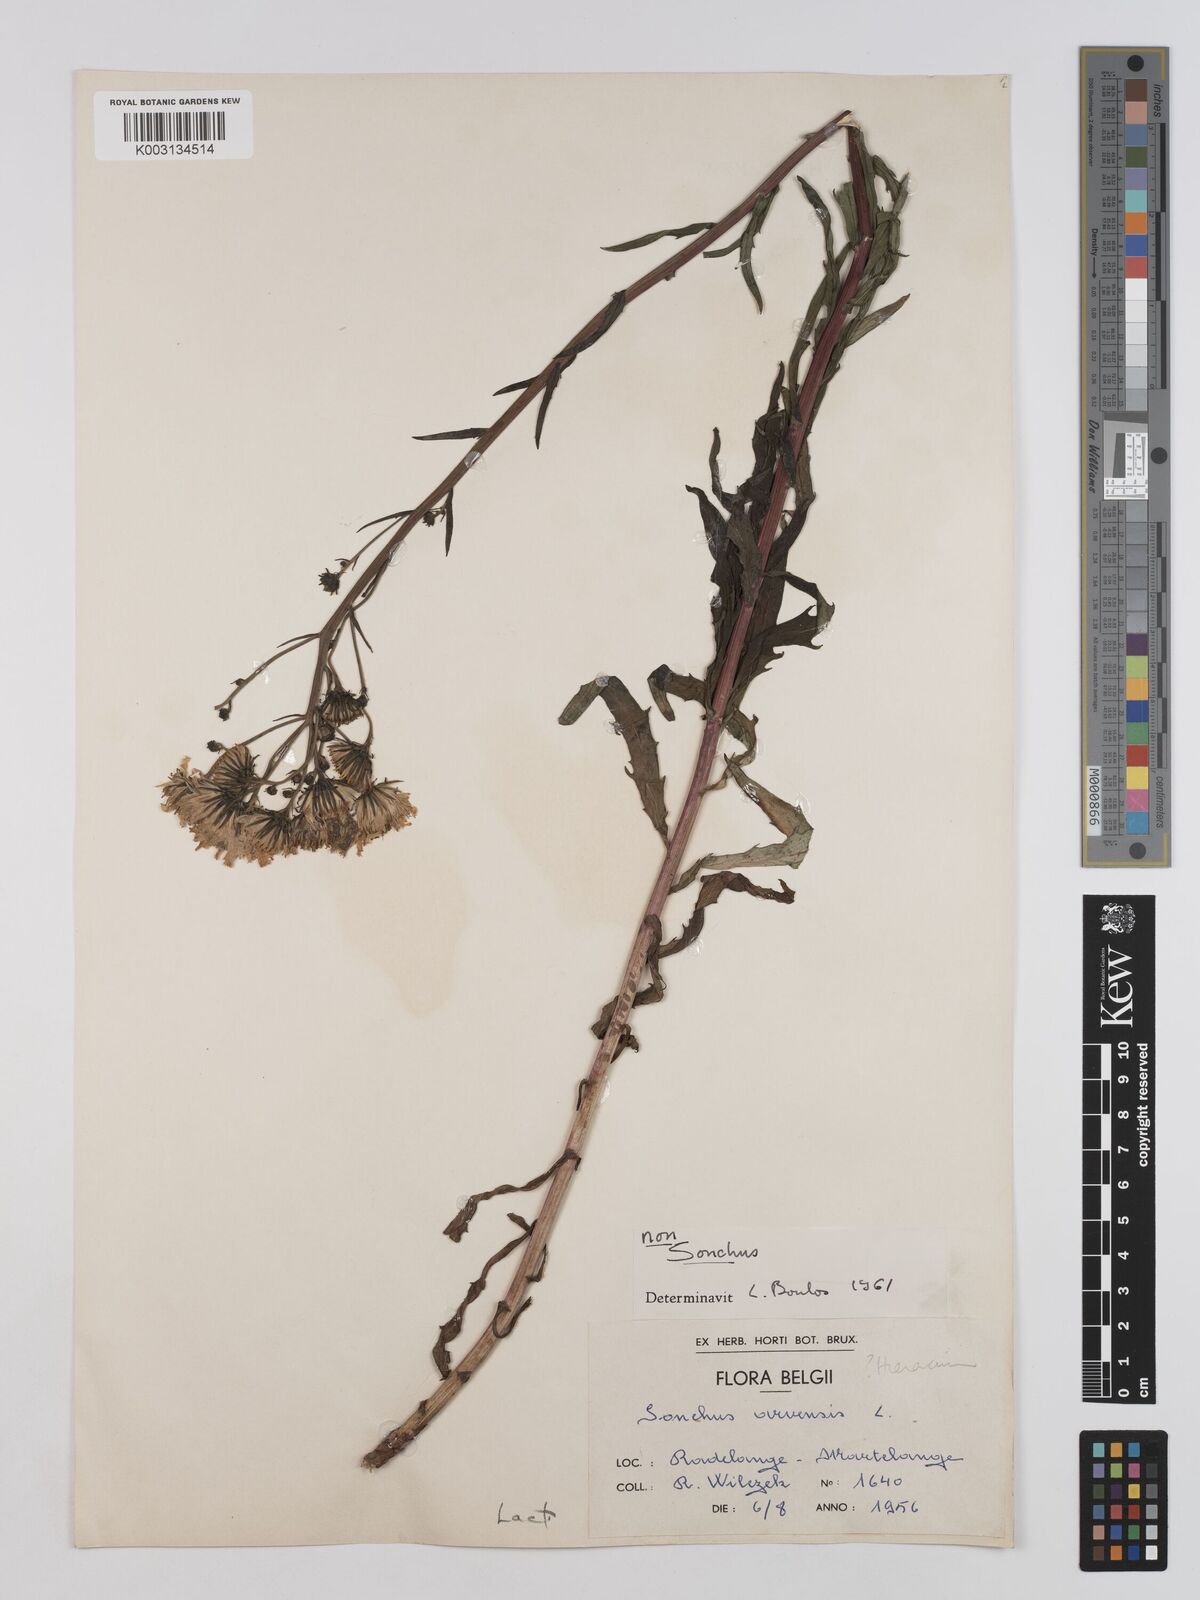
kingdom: Plantae
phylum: Tracheophyta
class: Magnoliopsida
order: Asterales
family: Asteraceae
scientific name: Asteraceae
